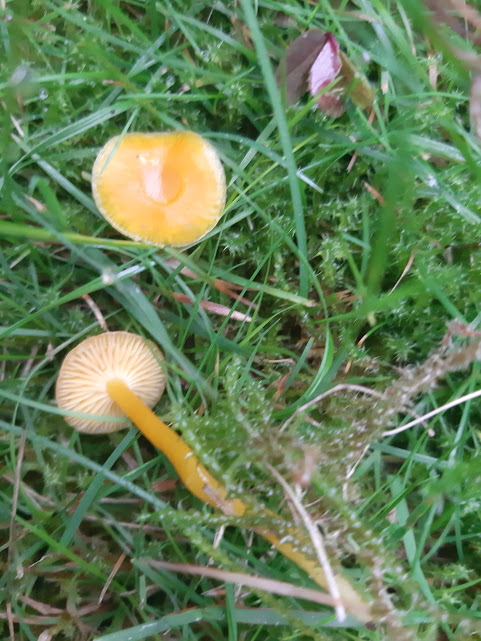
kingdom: Fungi
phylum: Basidiomycota
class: Agaricomycetes
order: Agaricales
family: Hygrophoraceae
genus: Hygrocybe
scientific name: Hygrocybe ceracea
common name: voksgul vokshat
